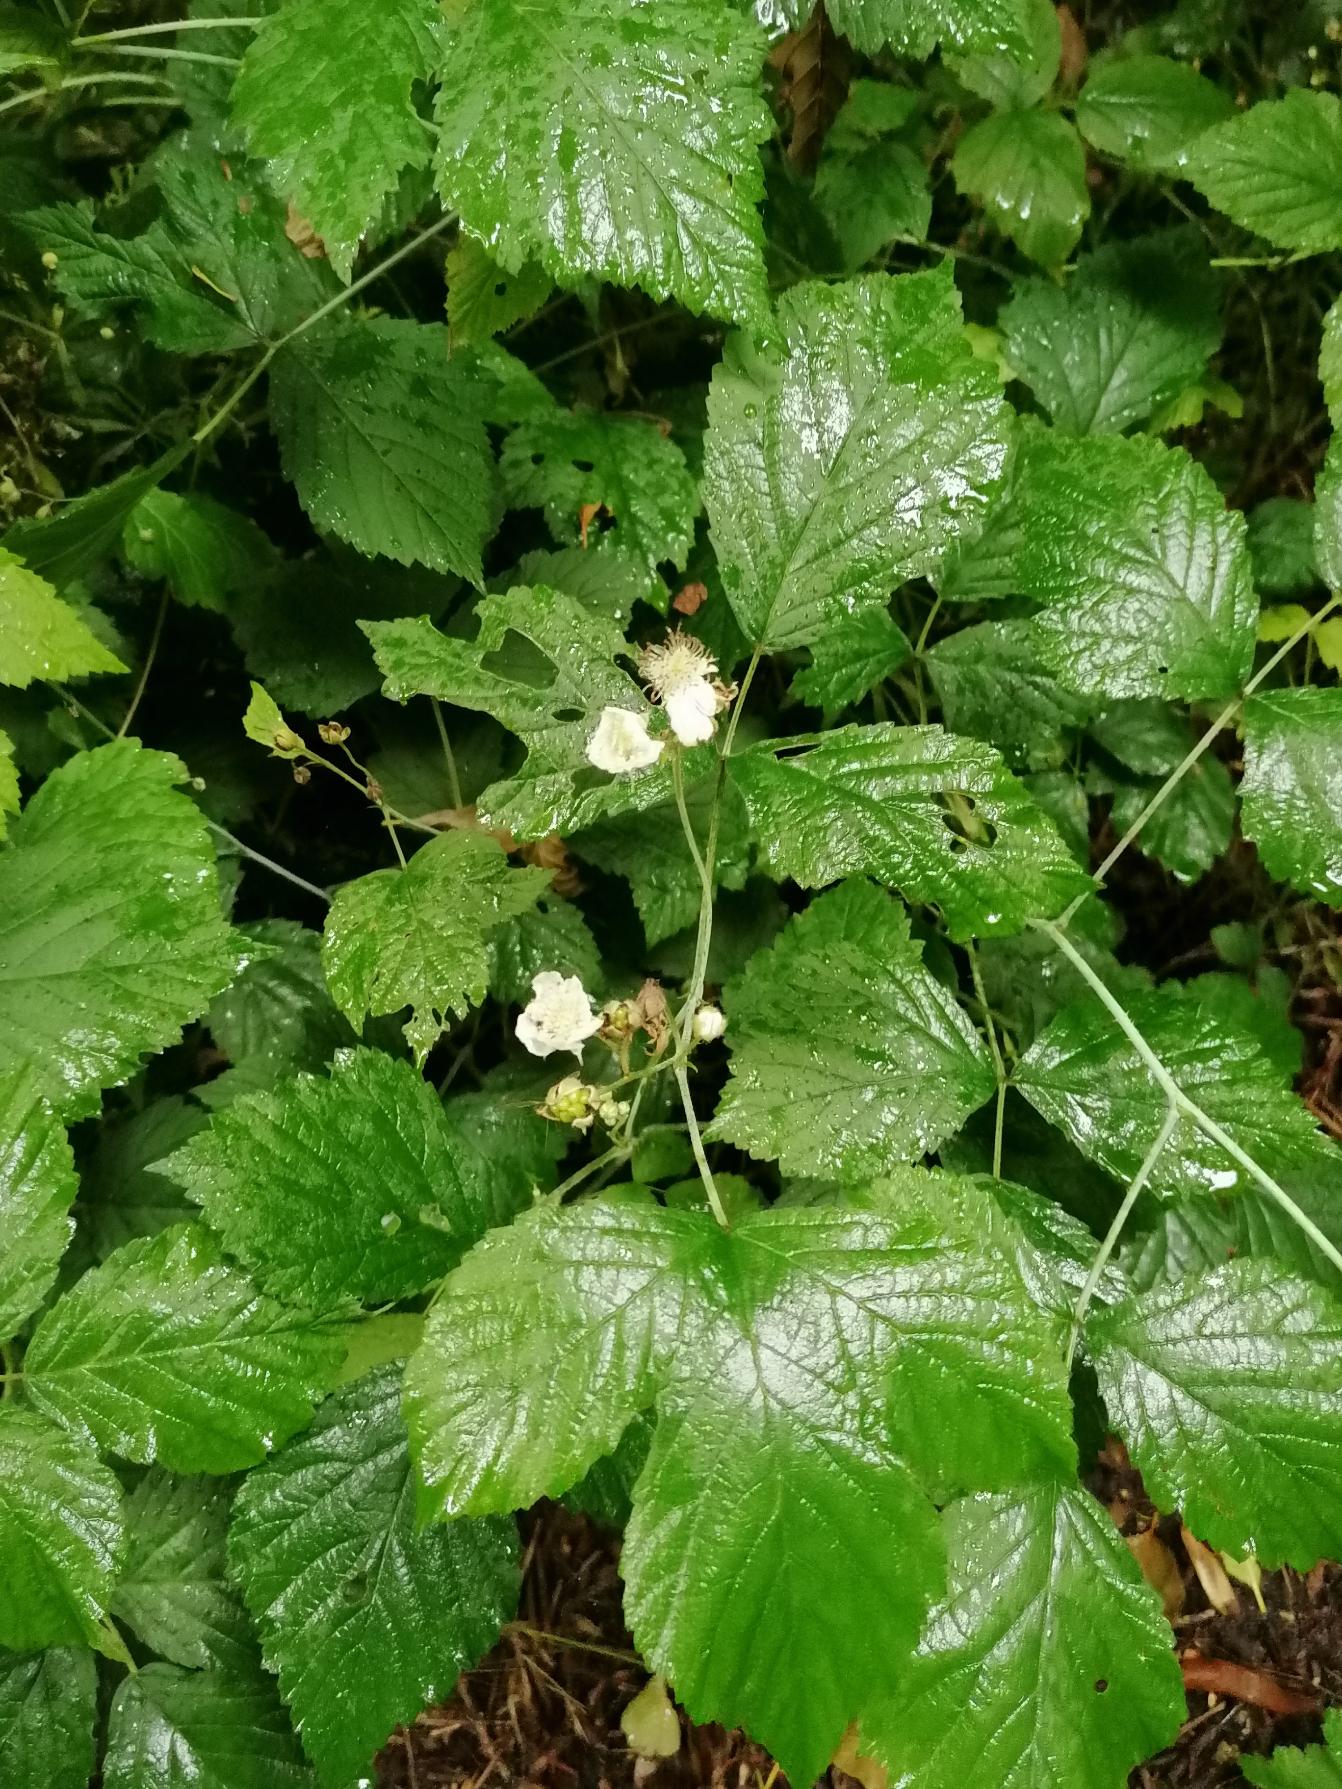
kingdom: Plantae
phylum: Tracheophyta
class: Magnoliopsida
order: Rosales
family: Rosaceae
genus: Rubus
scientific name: Rubus caesius
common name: Korbær
